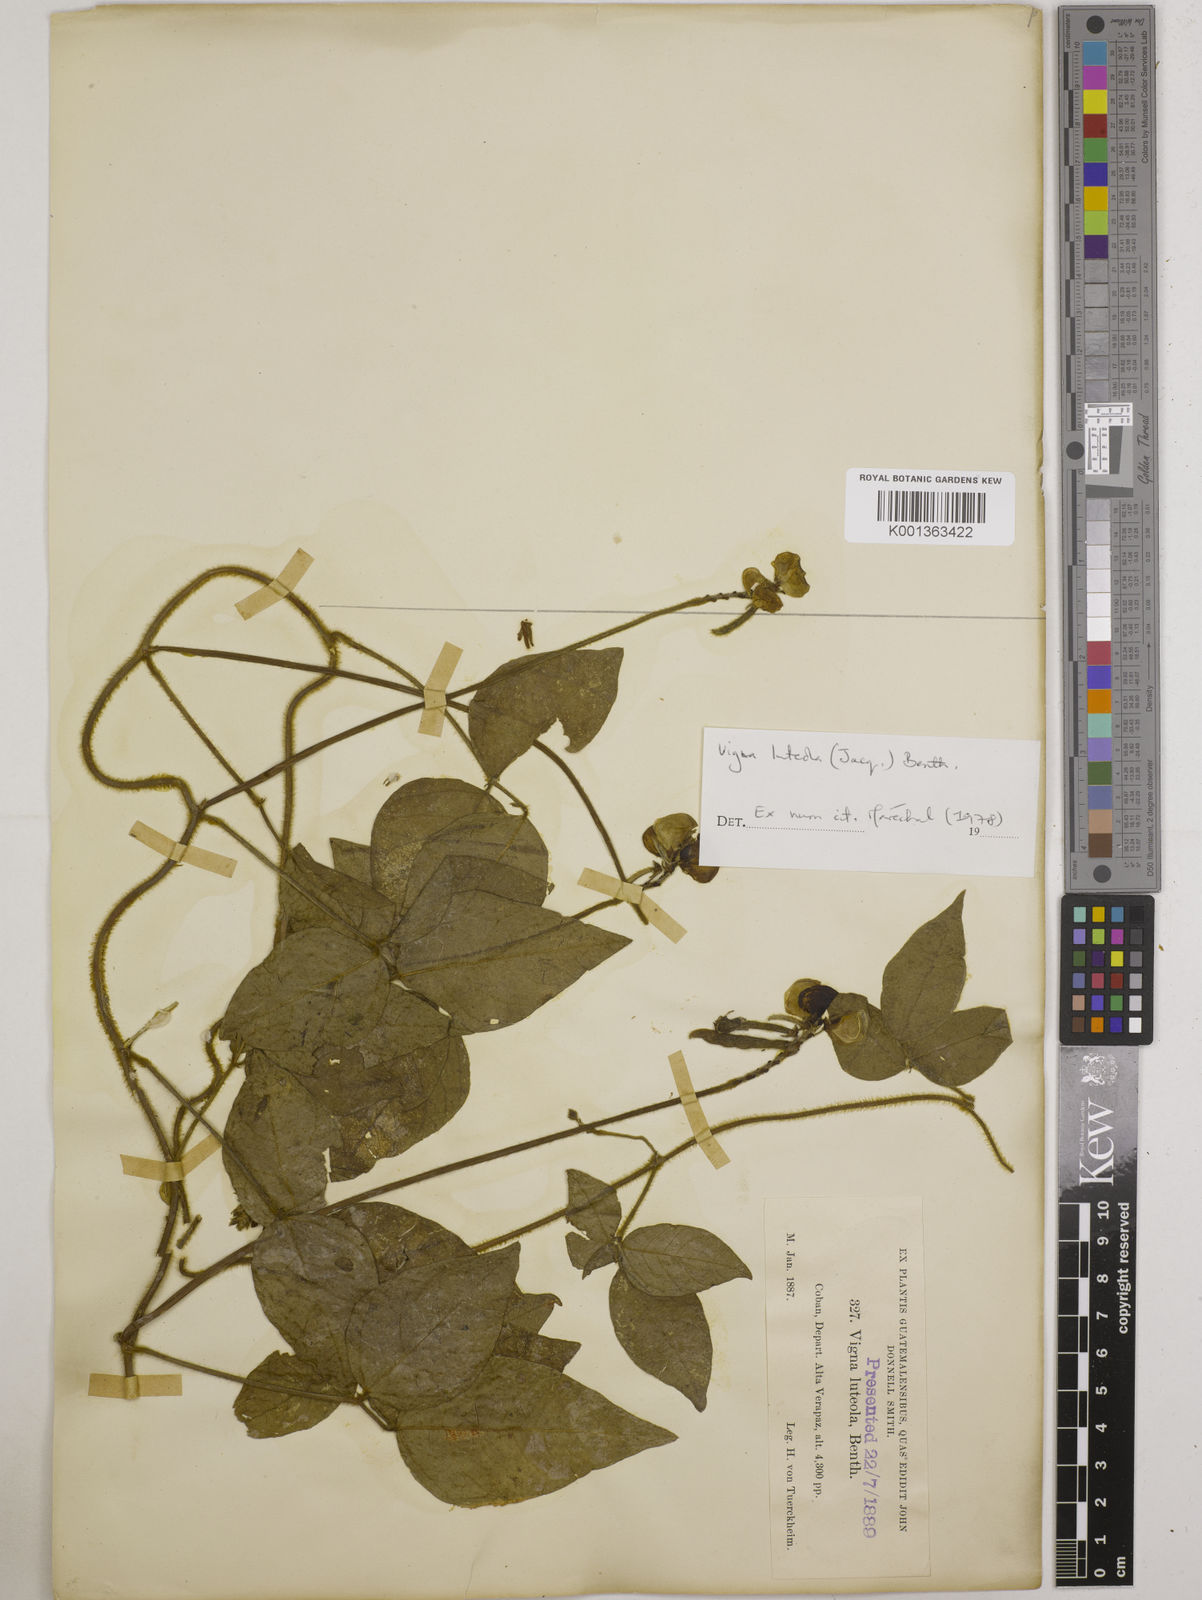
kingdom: Plantae
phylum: Tracheophyta
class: Magnoliopsida
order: Fabales
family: Fabaceae
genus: Vigna
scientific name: Vigna luteola
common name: Hairypod cowpea
